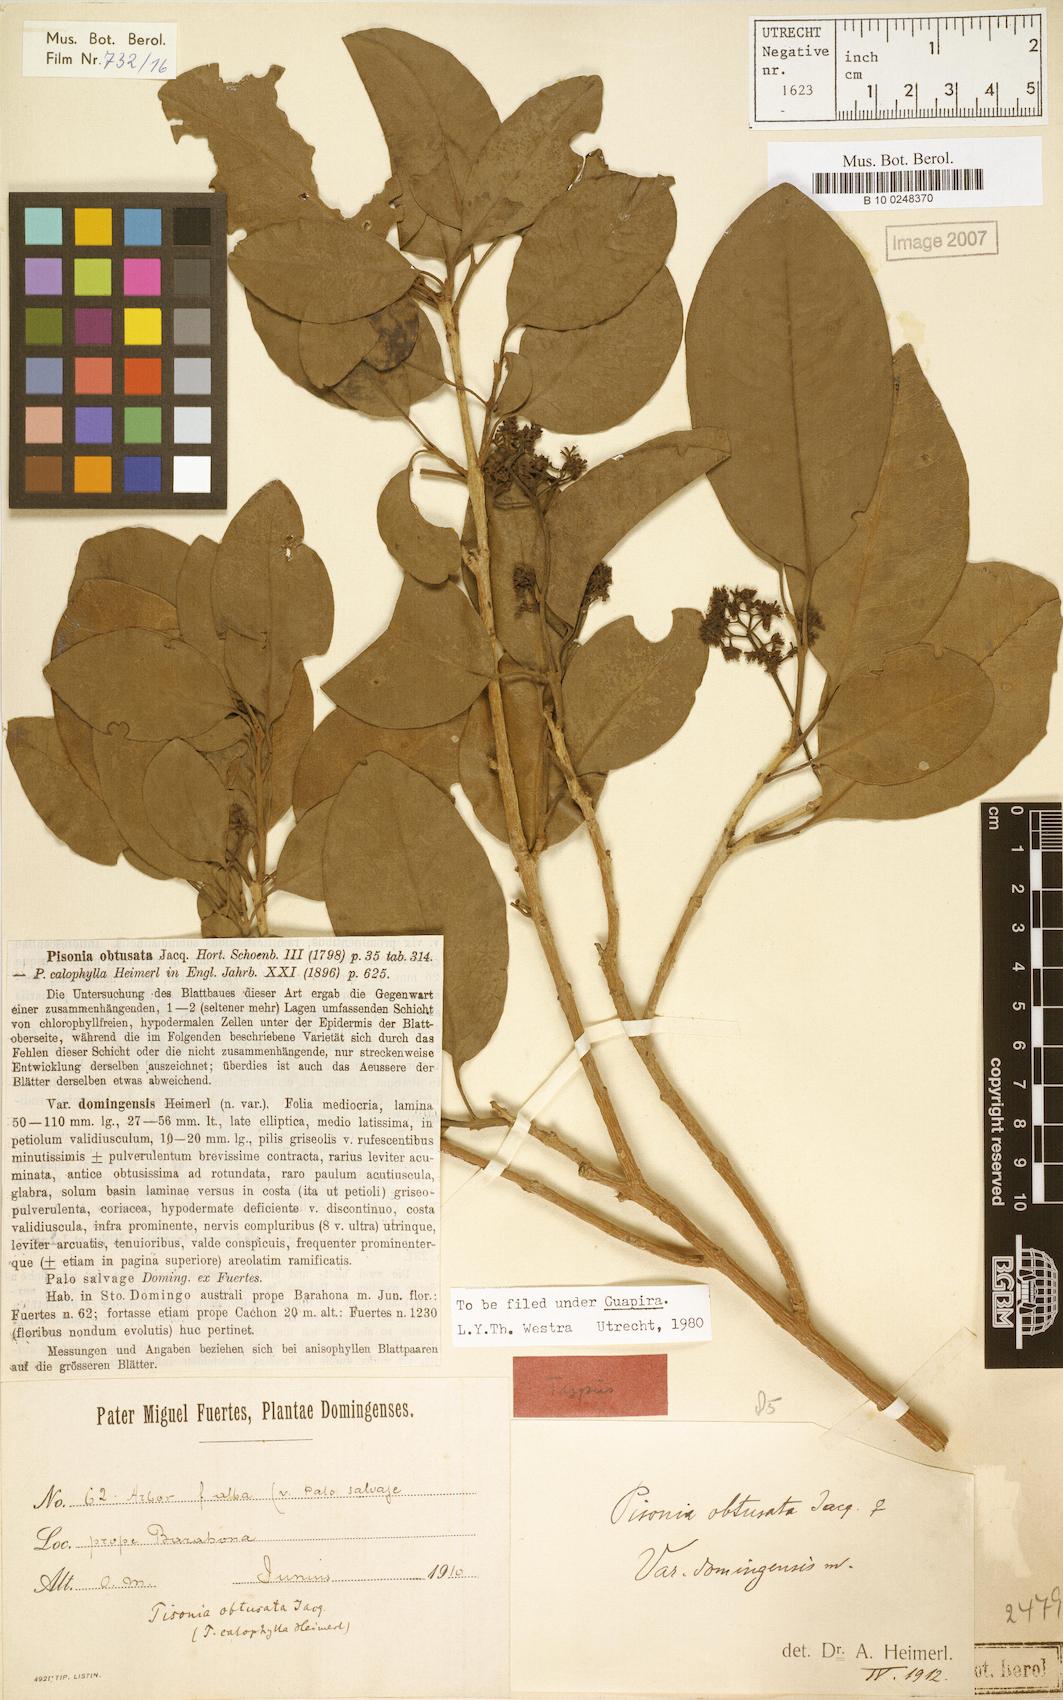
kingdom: Plantae
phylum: Tracheophyta
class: Magnoliopsida
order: Caryophyllales
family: Nyctaginaceae
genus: Guapira
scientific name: Guapira domingensis
